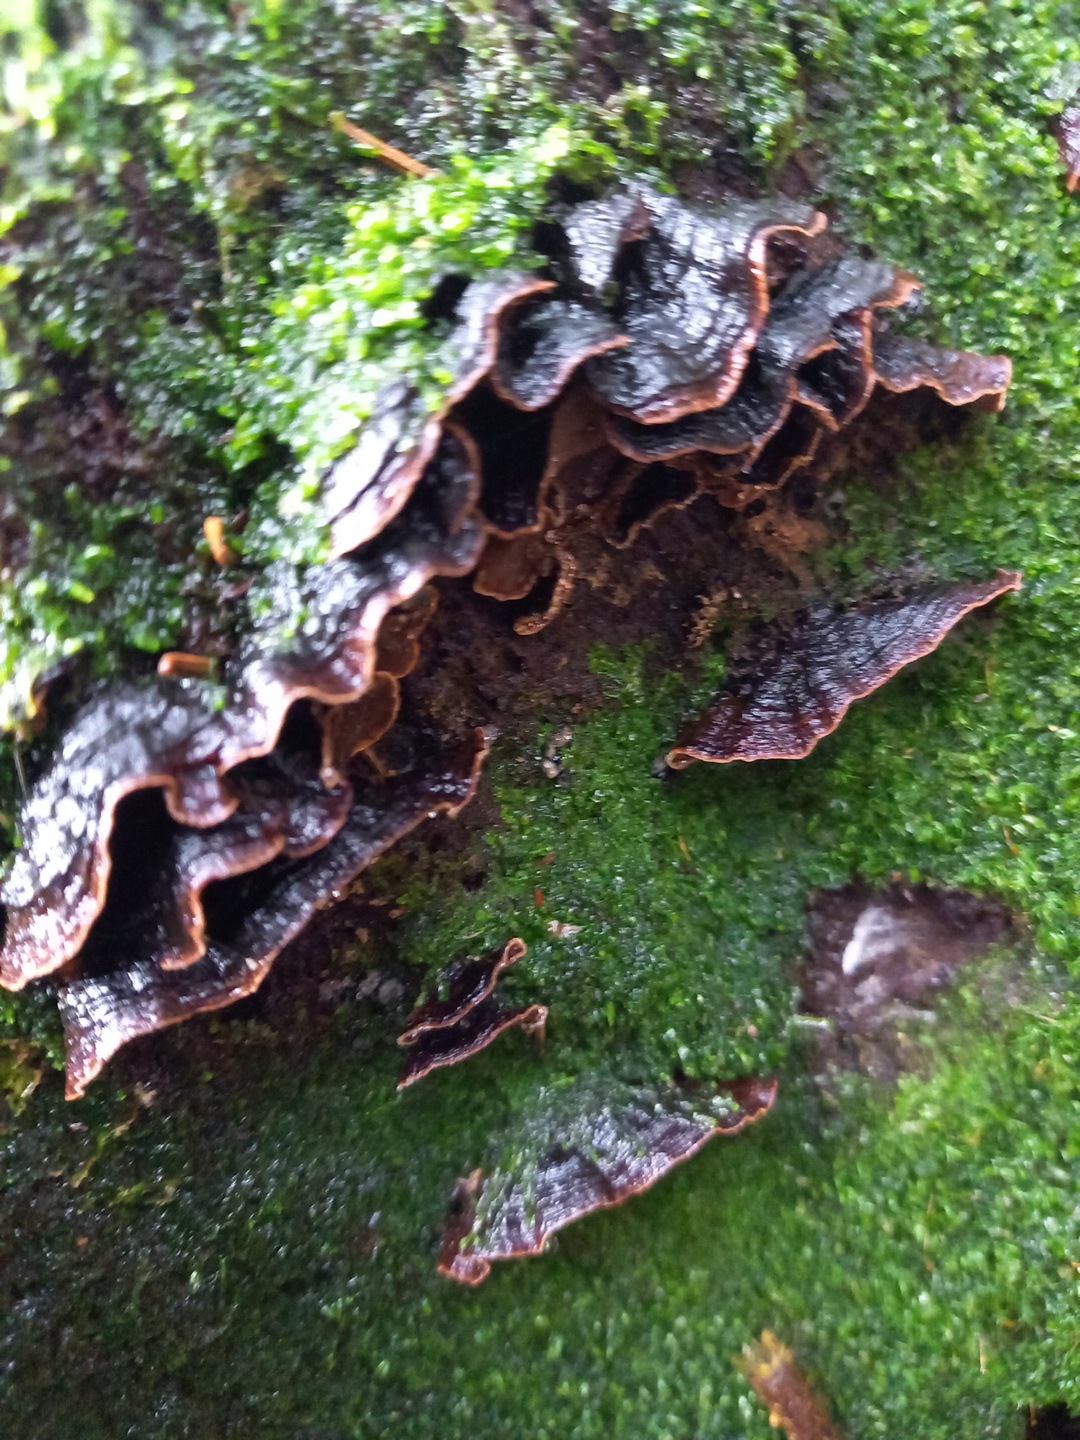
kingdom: Fungi
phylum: Basidiomycota
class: Agaricomycetes
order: Hymenochaetales
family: Hymenochaetaceae
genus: Hymenochaete
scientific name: Hymenochaete rubiginosa
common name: stiv ruslædersvamp
